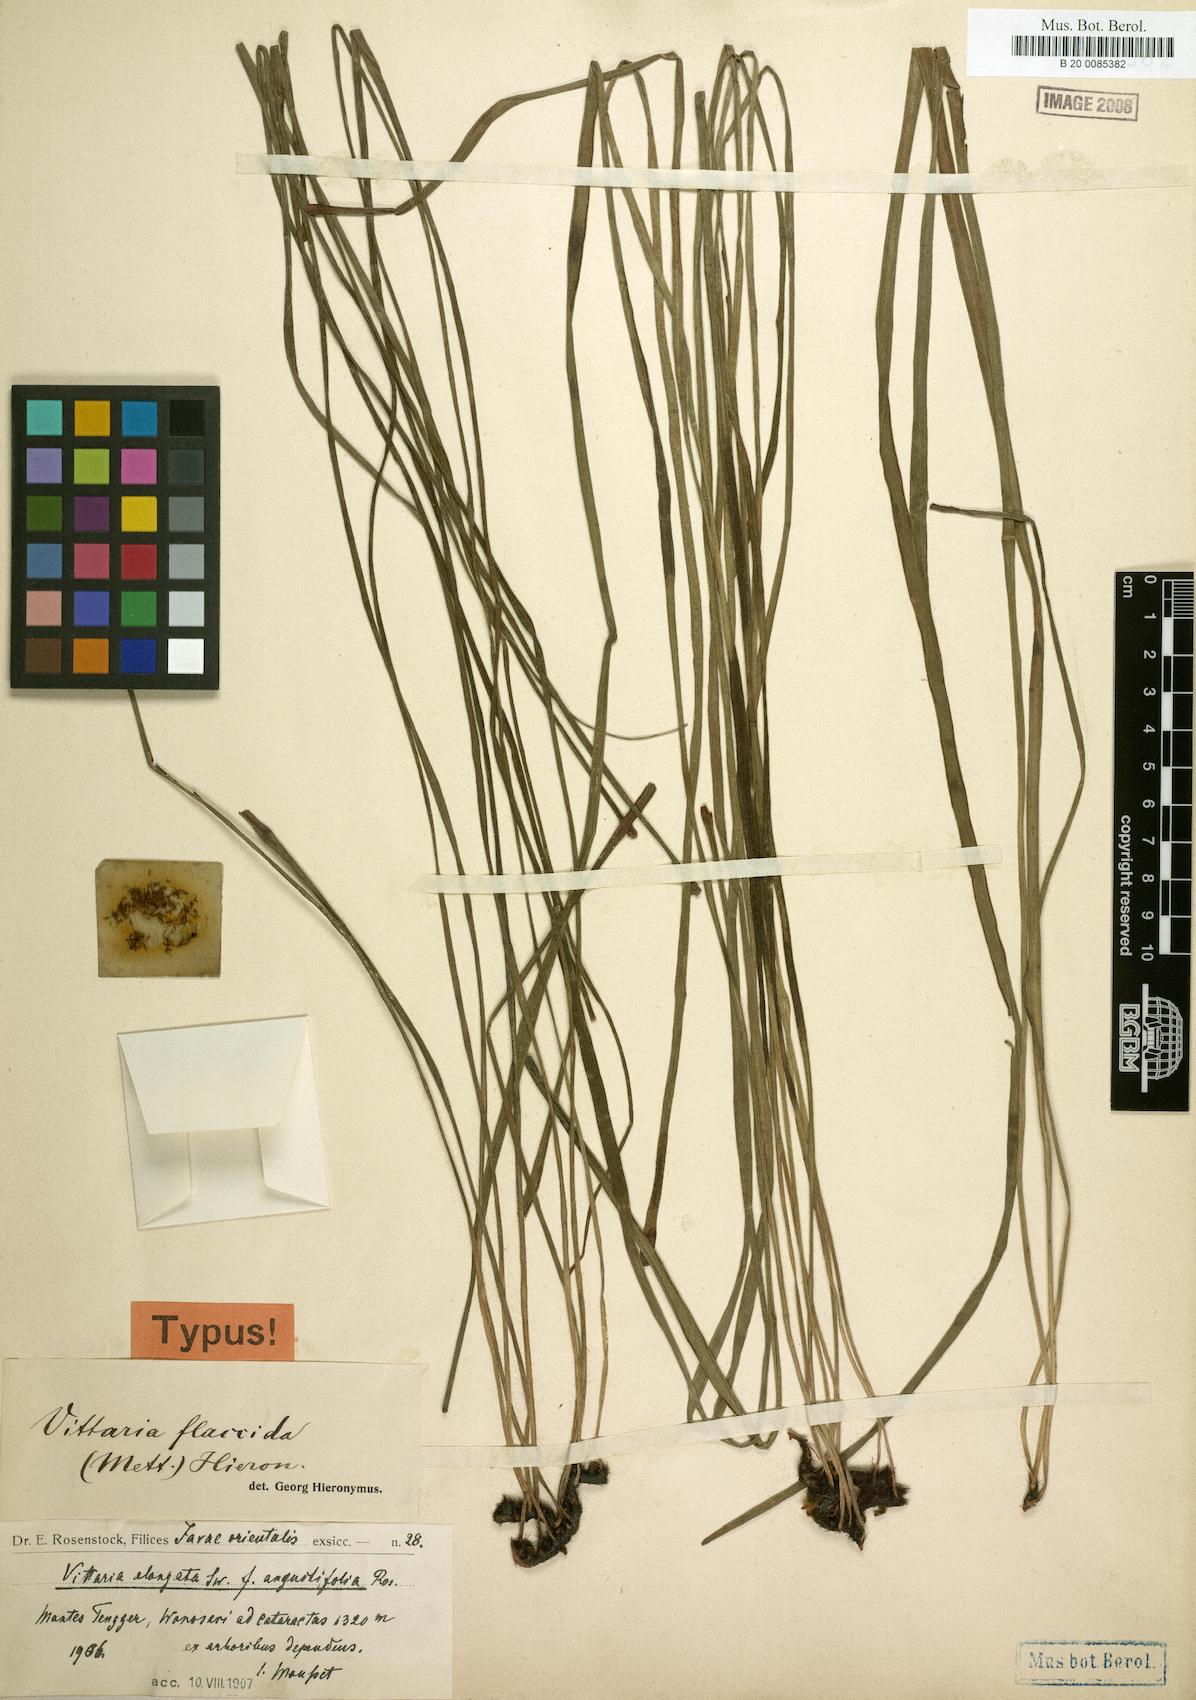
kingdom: Plantae
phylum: Tracheophyta
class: Polypodiopsida
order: Polypodiales
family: Pteridaceae
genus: Haplopteris
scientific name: Haplopteris elongata
